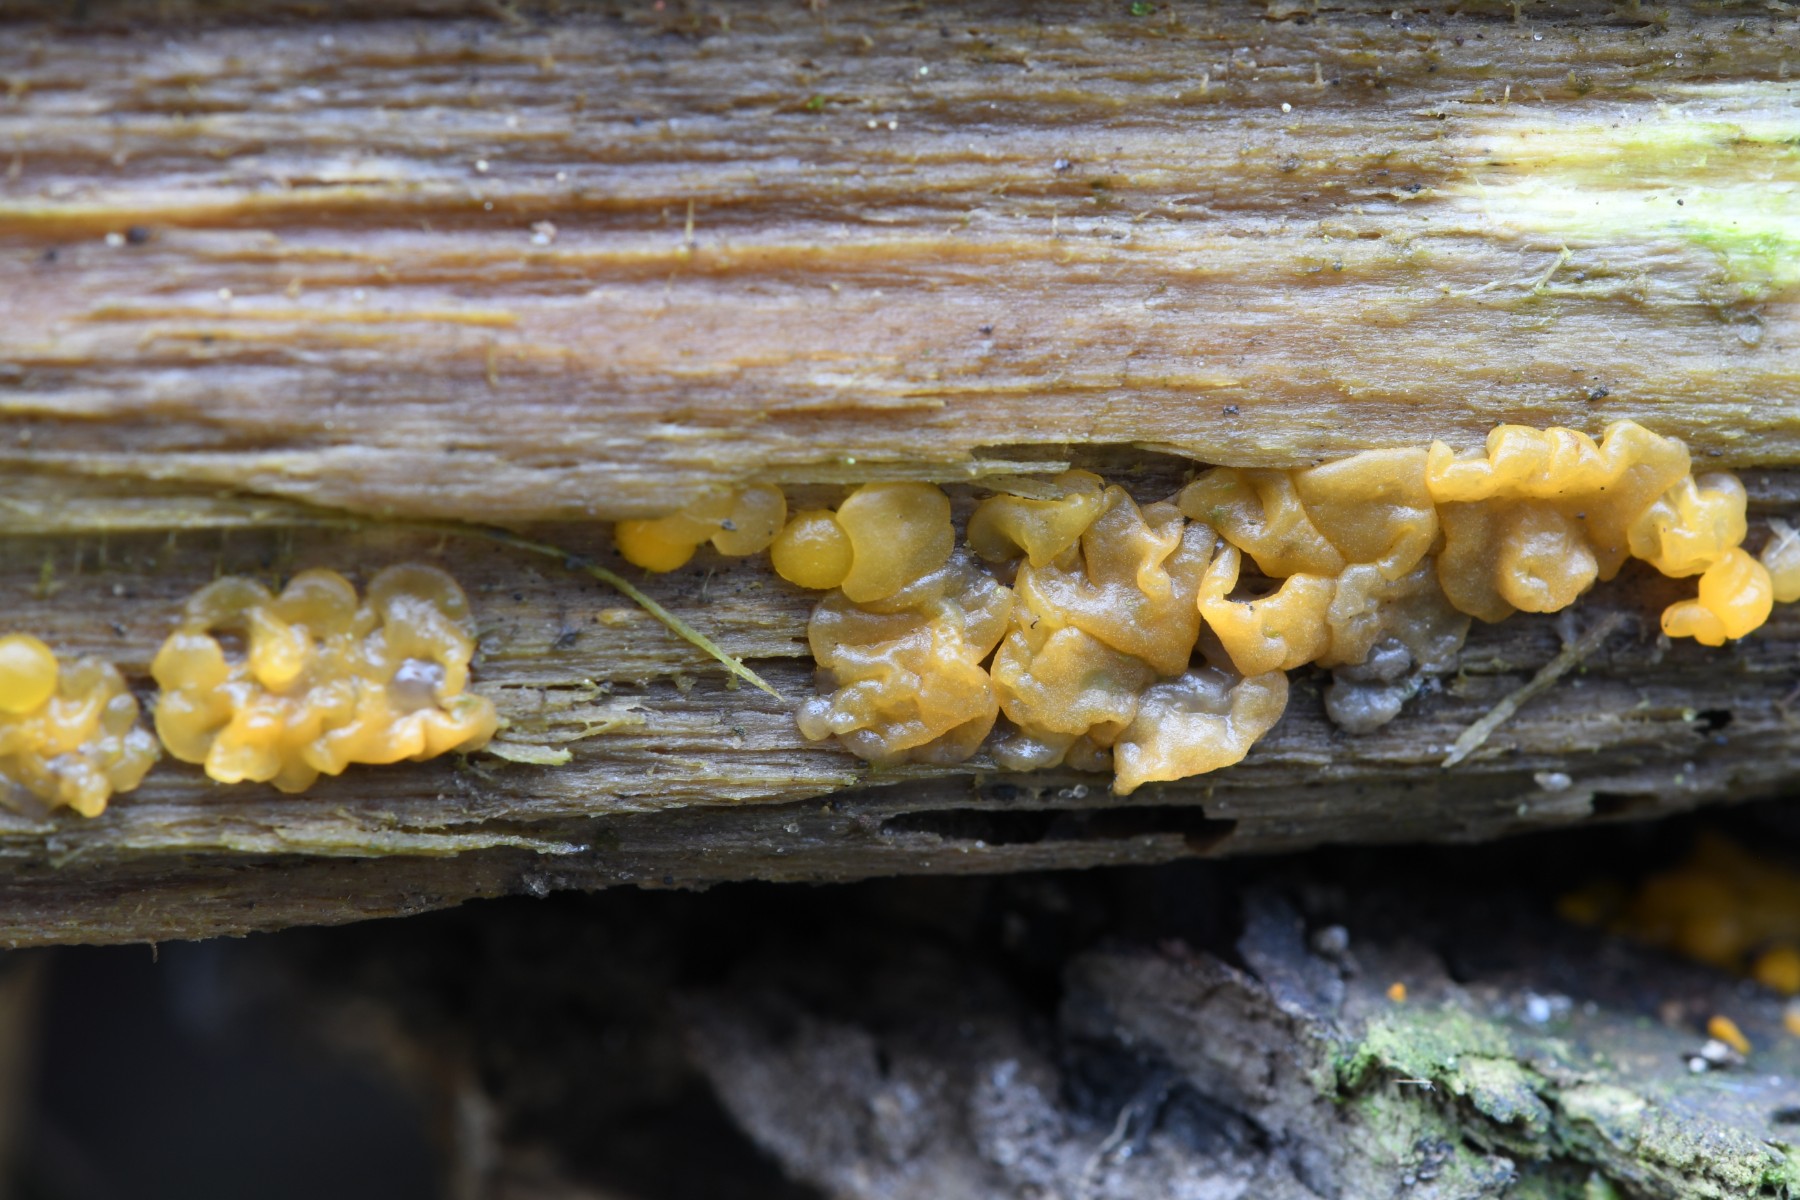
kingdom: Fungi
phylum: Basidiomycota
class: Dacrymycetes
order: Dacrymycetales
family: Dacrymycetaceae
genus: Dacrymyces
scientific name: Dacrymyces
